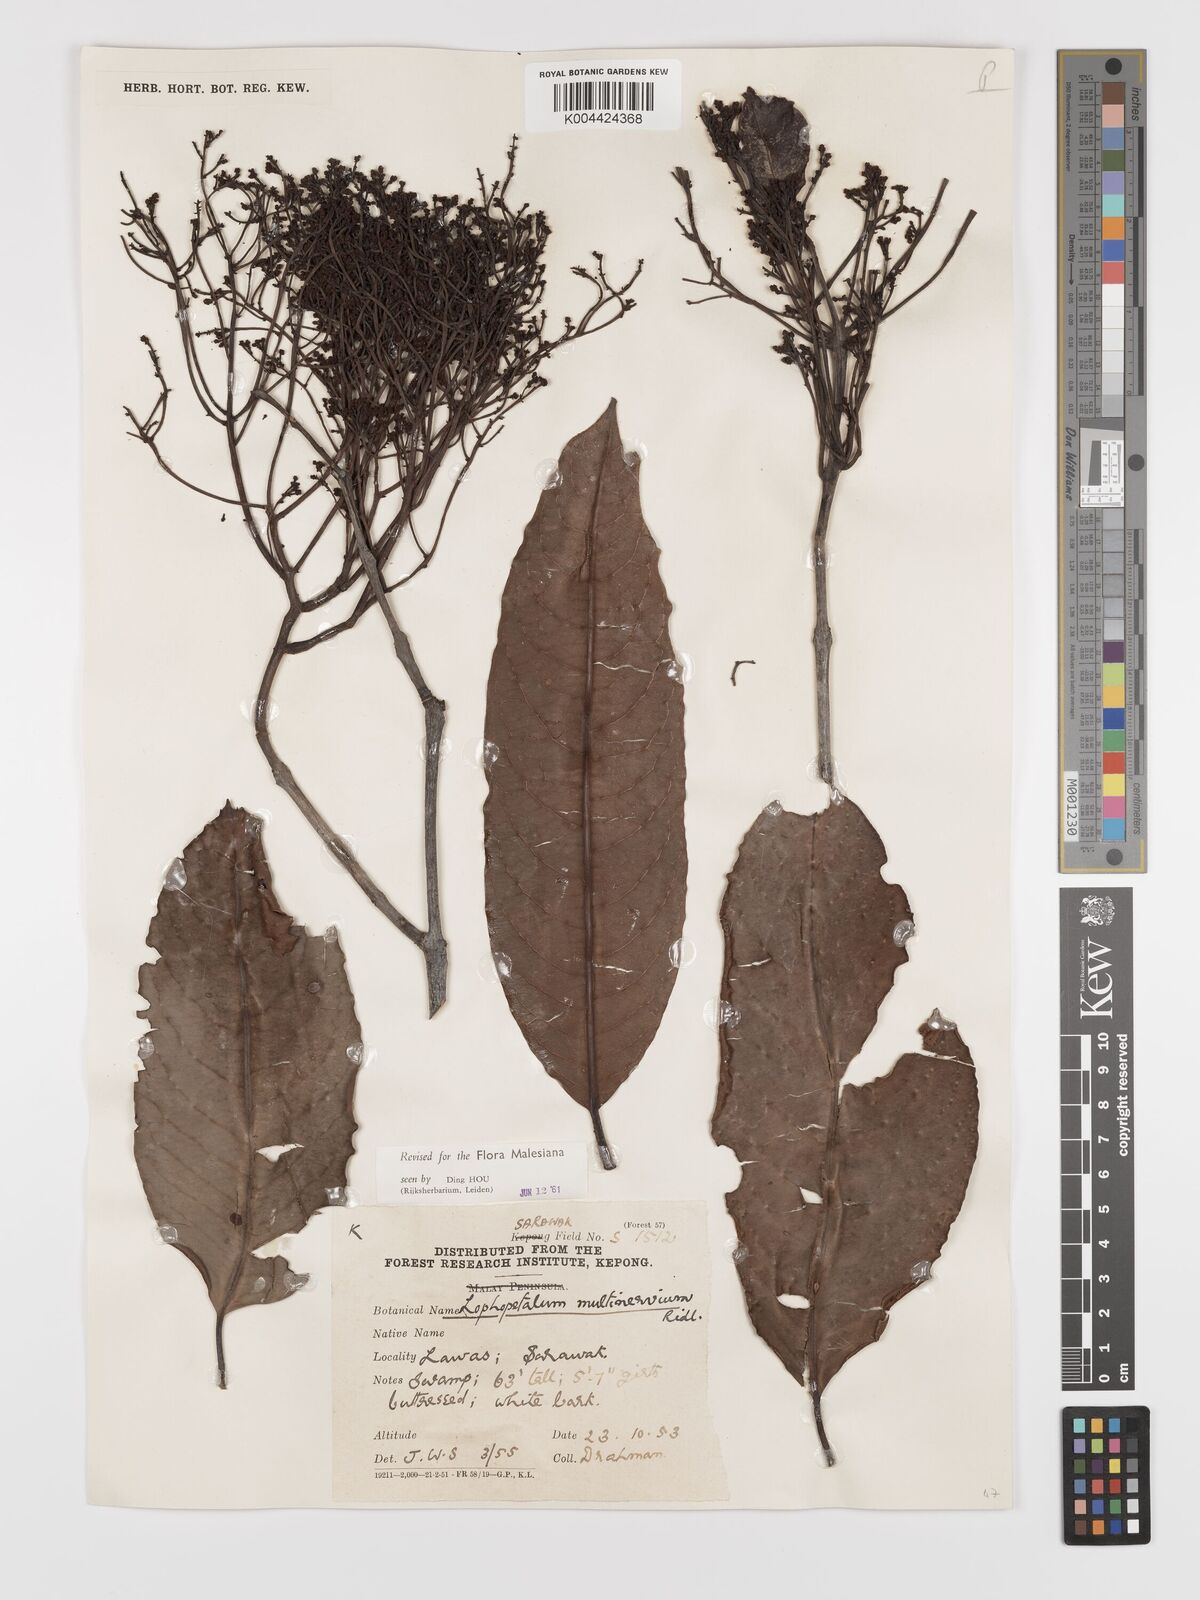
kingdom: Plantae
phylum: Tracheophyta
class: Magnoliopsida
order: Celastrales
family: Celastraceae
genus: Lophopetalum
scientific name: Lophopetalum multinervium
